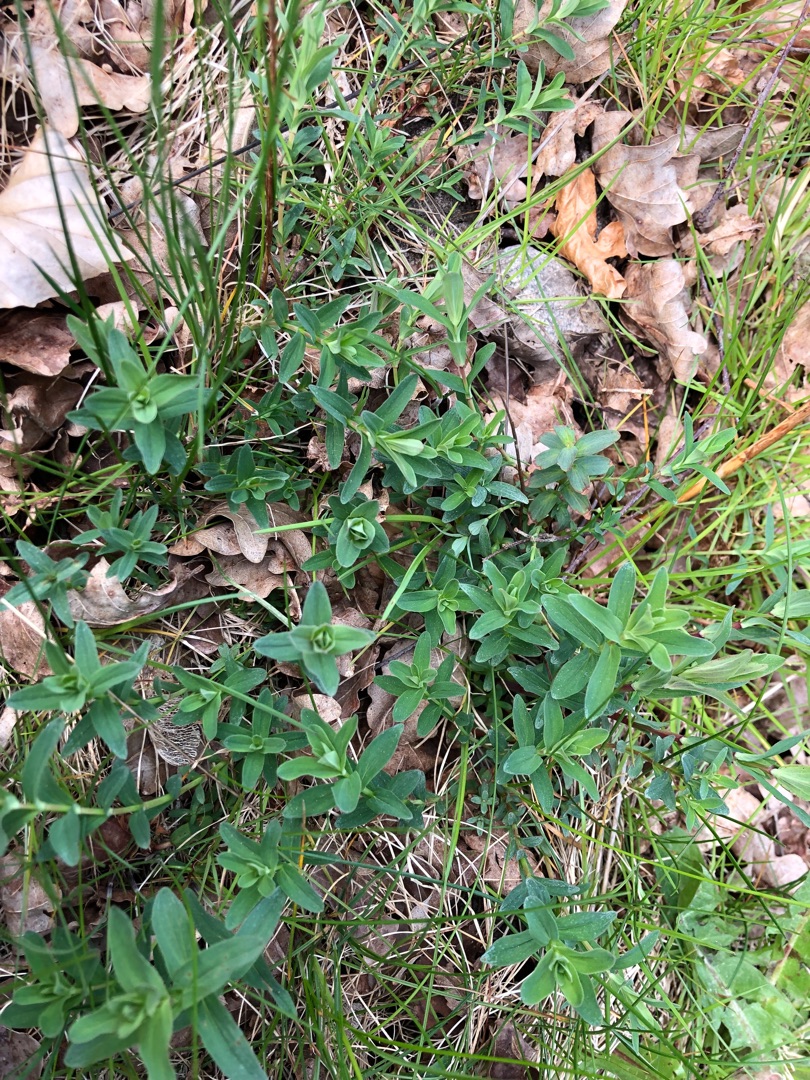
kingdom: Plantae
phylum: Tracheophyta
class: Magnoliopsida
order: Malpighiales
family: Hypericaceae
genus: Hypericum
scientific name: Hypericum perforatum
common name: Prikbladet perikon
